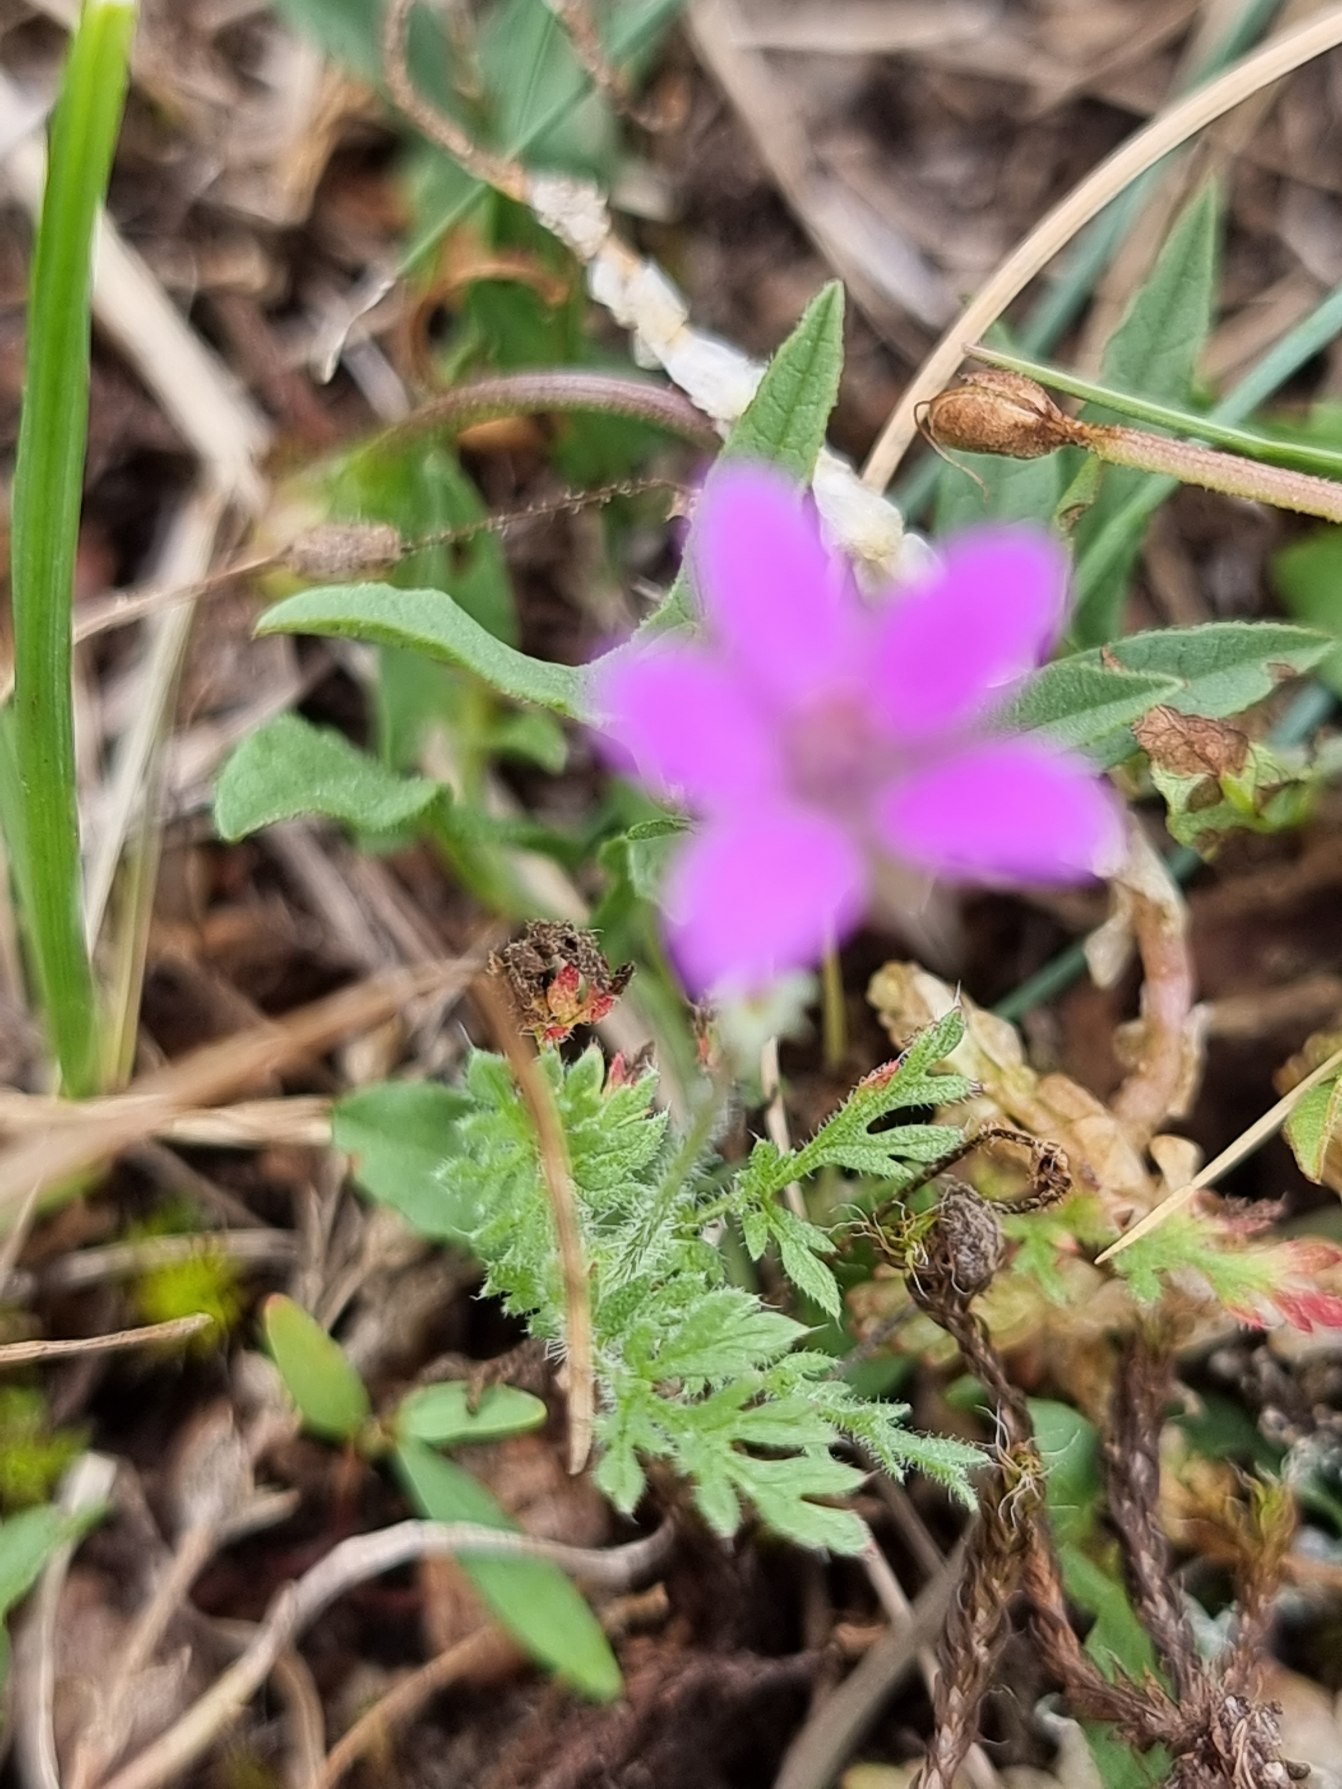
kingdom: Plantae
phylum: Tracheophyta
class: Magnoliopsida
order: Geraniales
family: Geraniaceae
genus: Erodium
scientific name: Erodium cicutarium
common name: Hejrenæb
